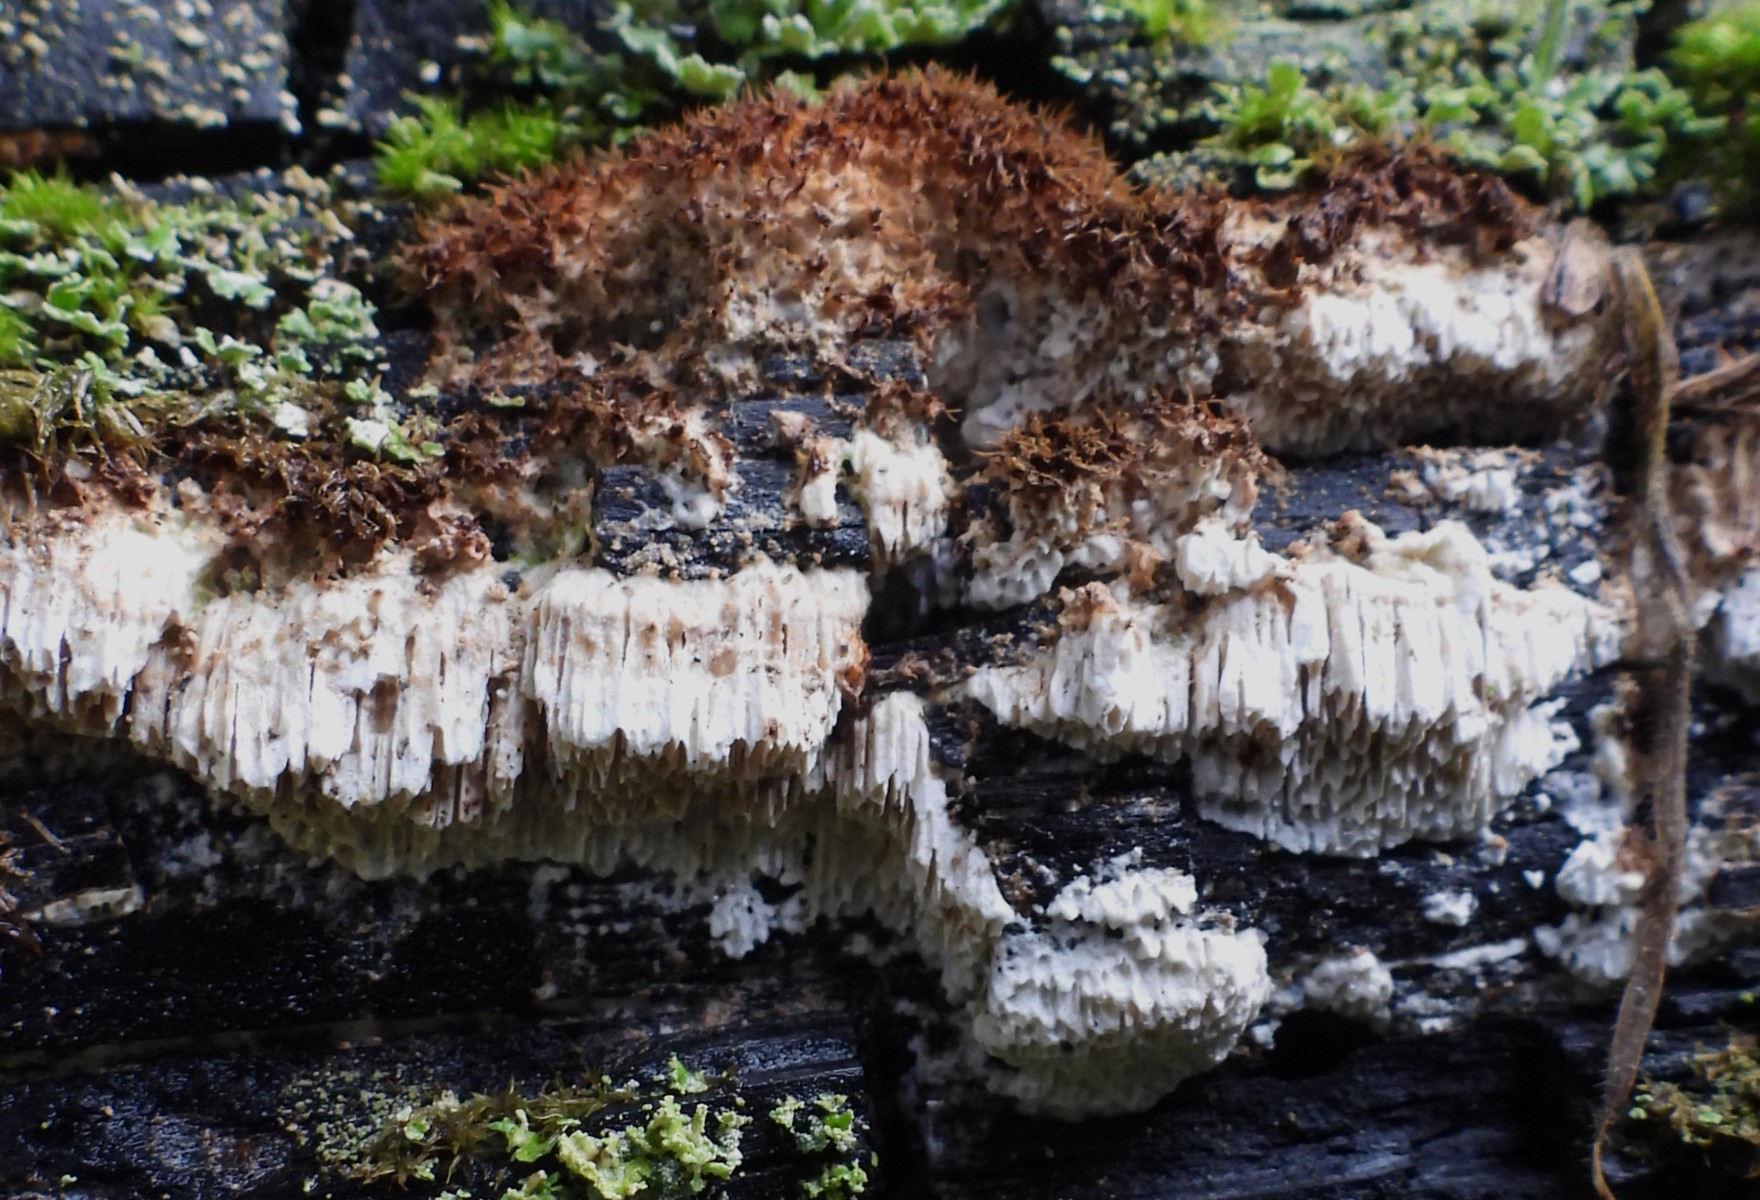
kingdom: Fungi
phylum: Basidiomycota
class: Agaricomycetes
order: Polyporales
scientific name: Polyporales
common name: poresvampordenen
